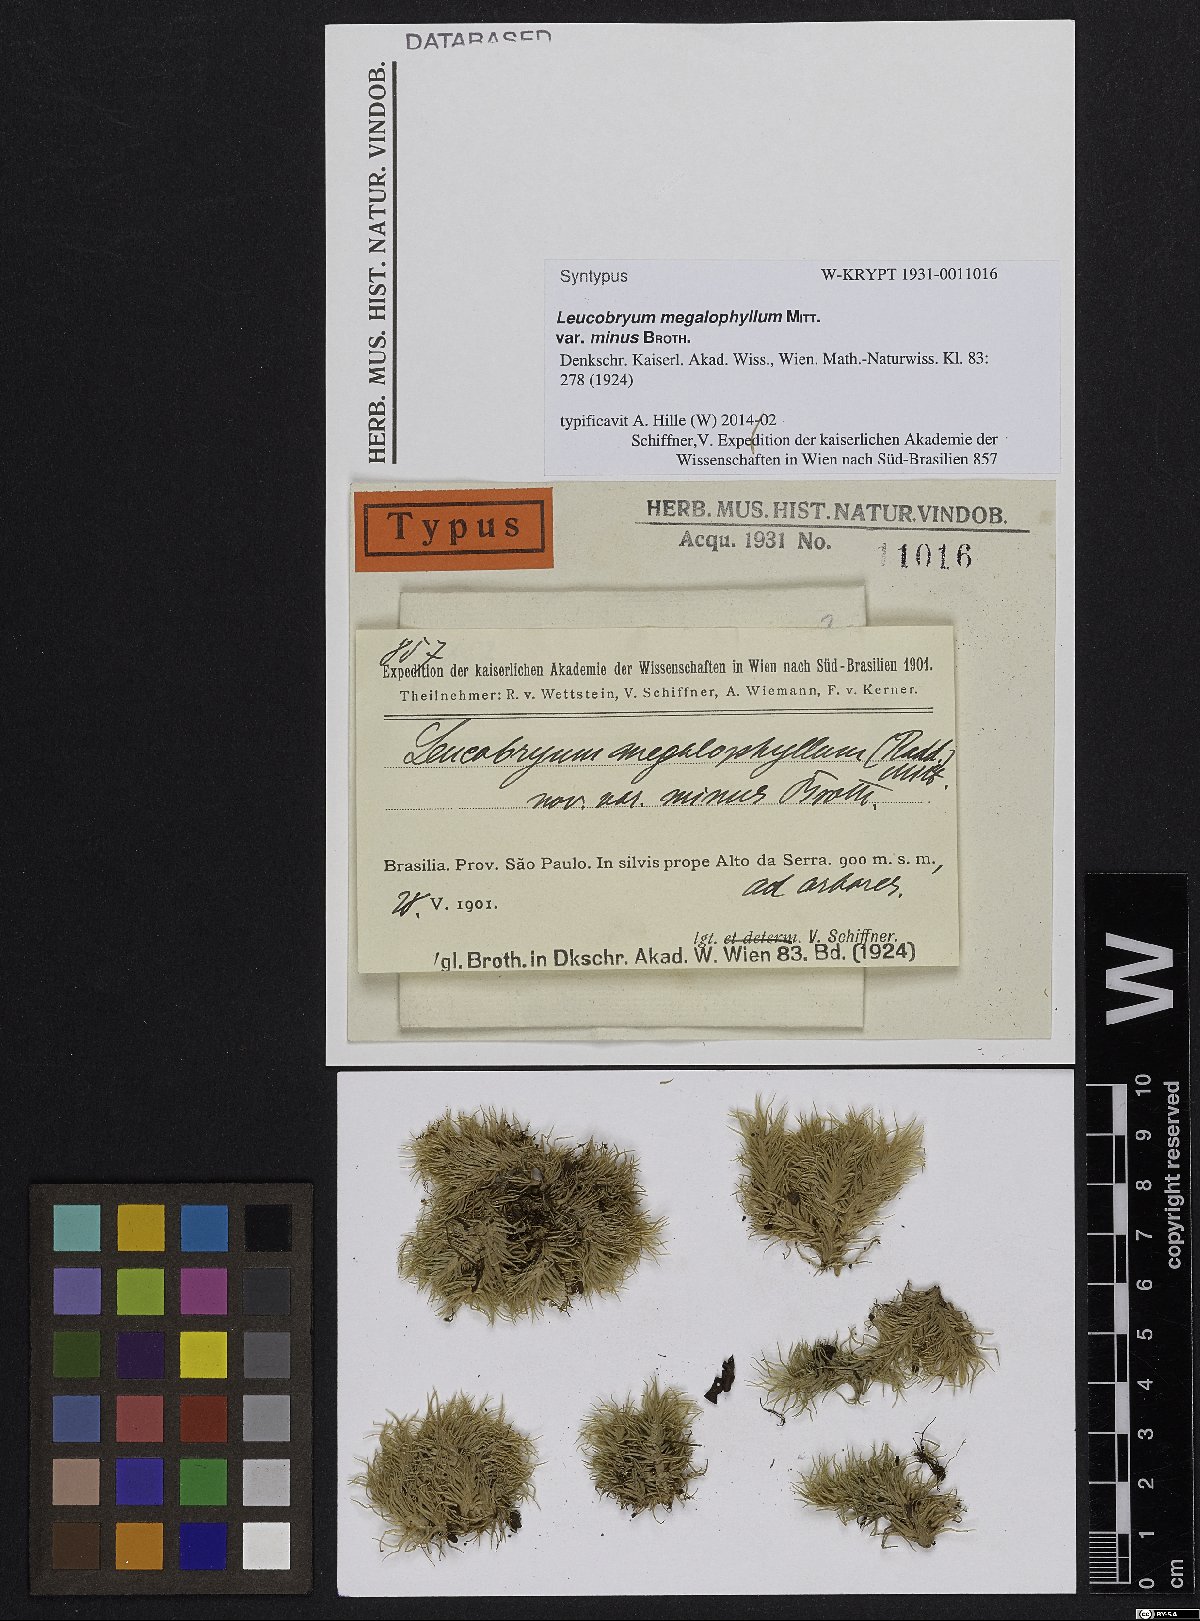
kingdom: Plantae
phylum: Bryophyta
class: Bryopsida
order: Dicranales
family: Leucobryaceae
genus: Leucobryum
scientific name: Leucobryum albicans
